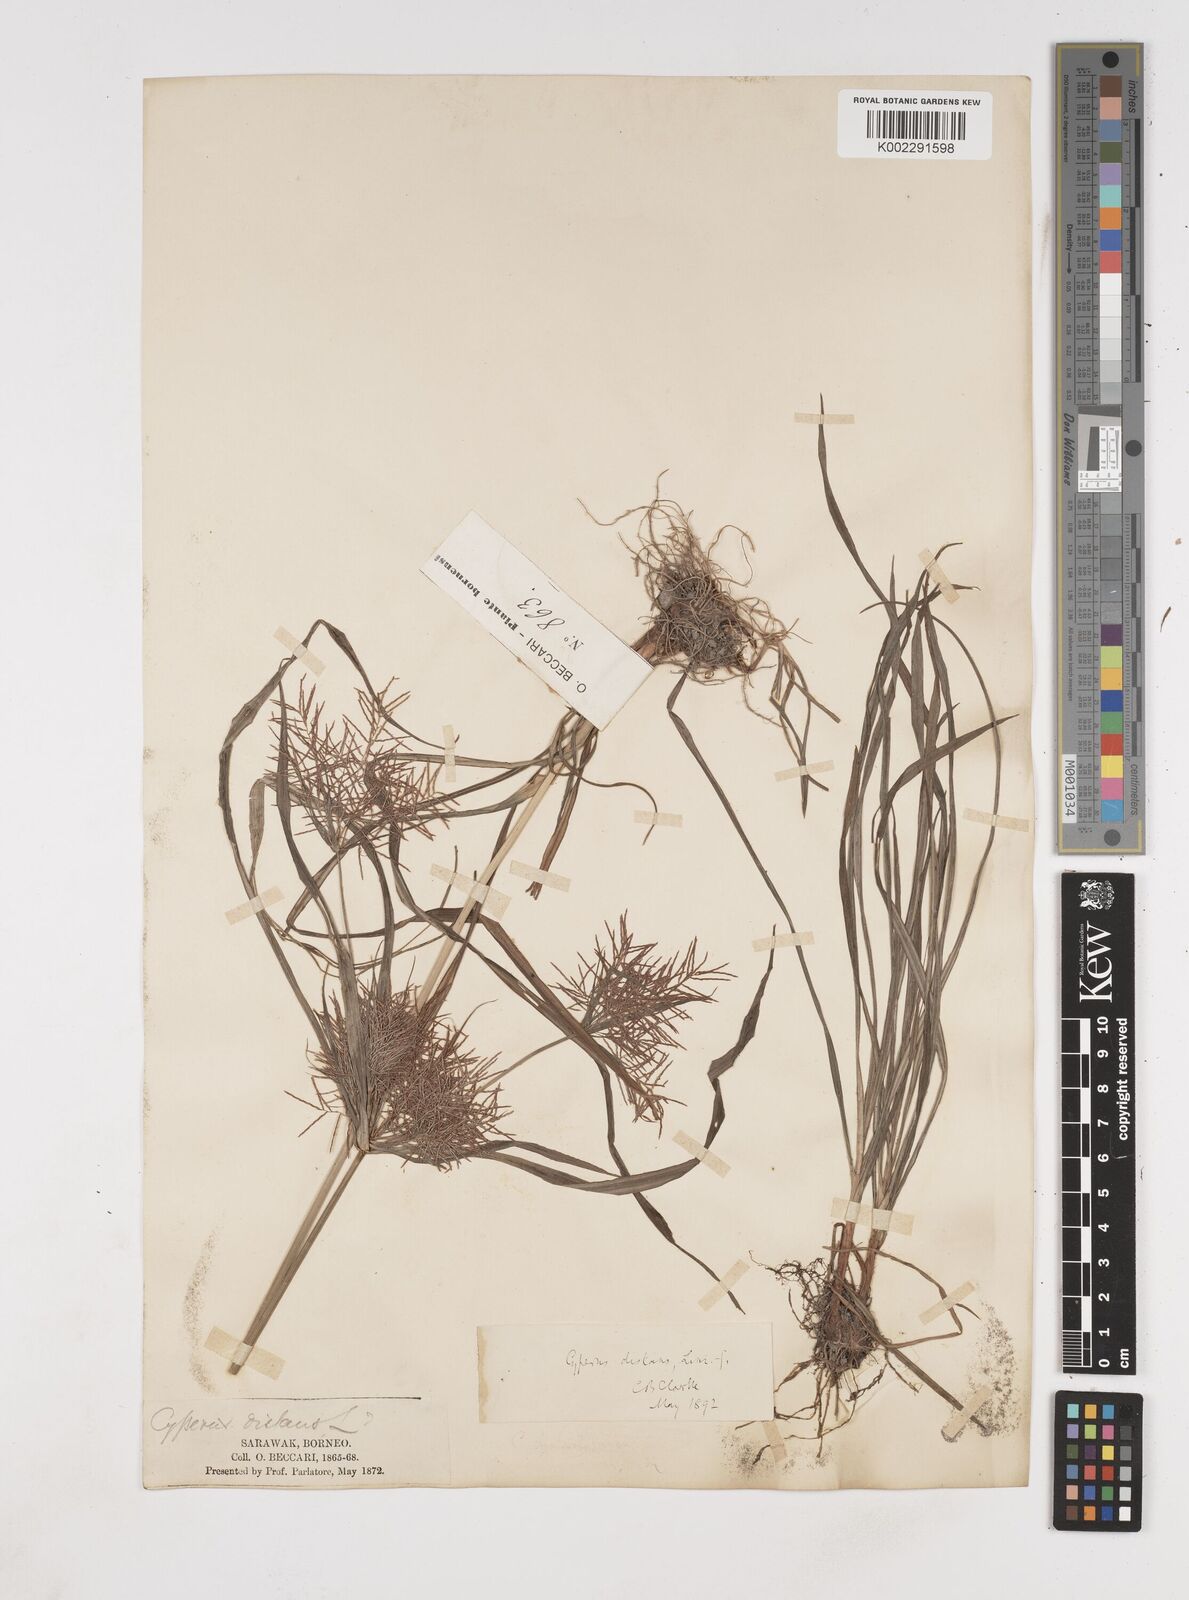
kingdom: Plantae
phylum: Tracheophyta
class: Liliopsida
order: Poales
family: Cyperaceae
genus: Cyperus
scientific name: Cyperus distans
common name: Slender cyperus
